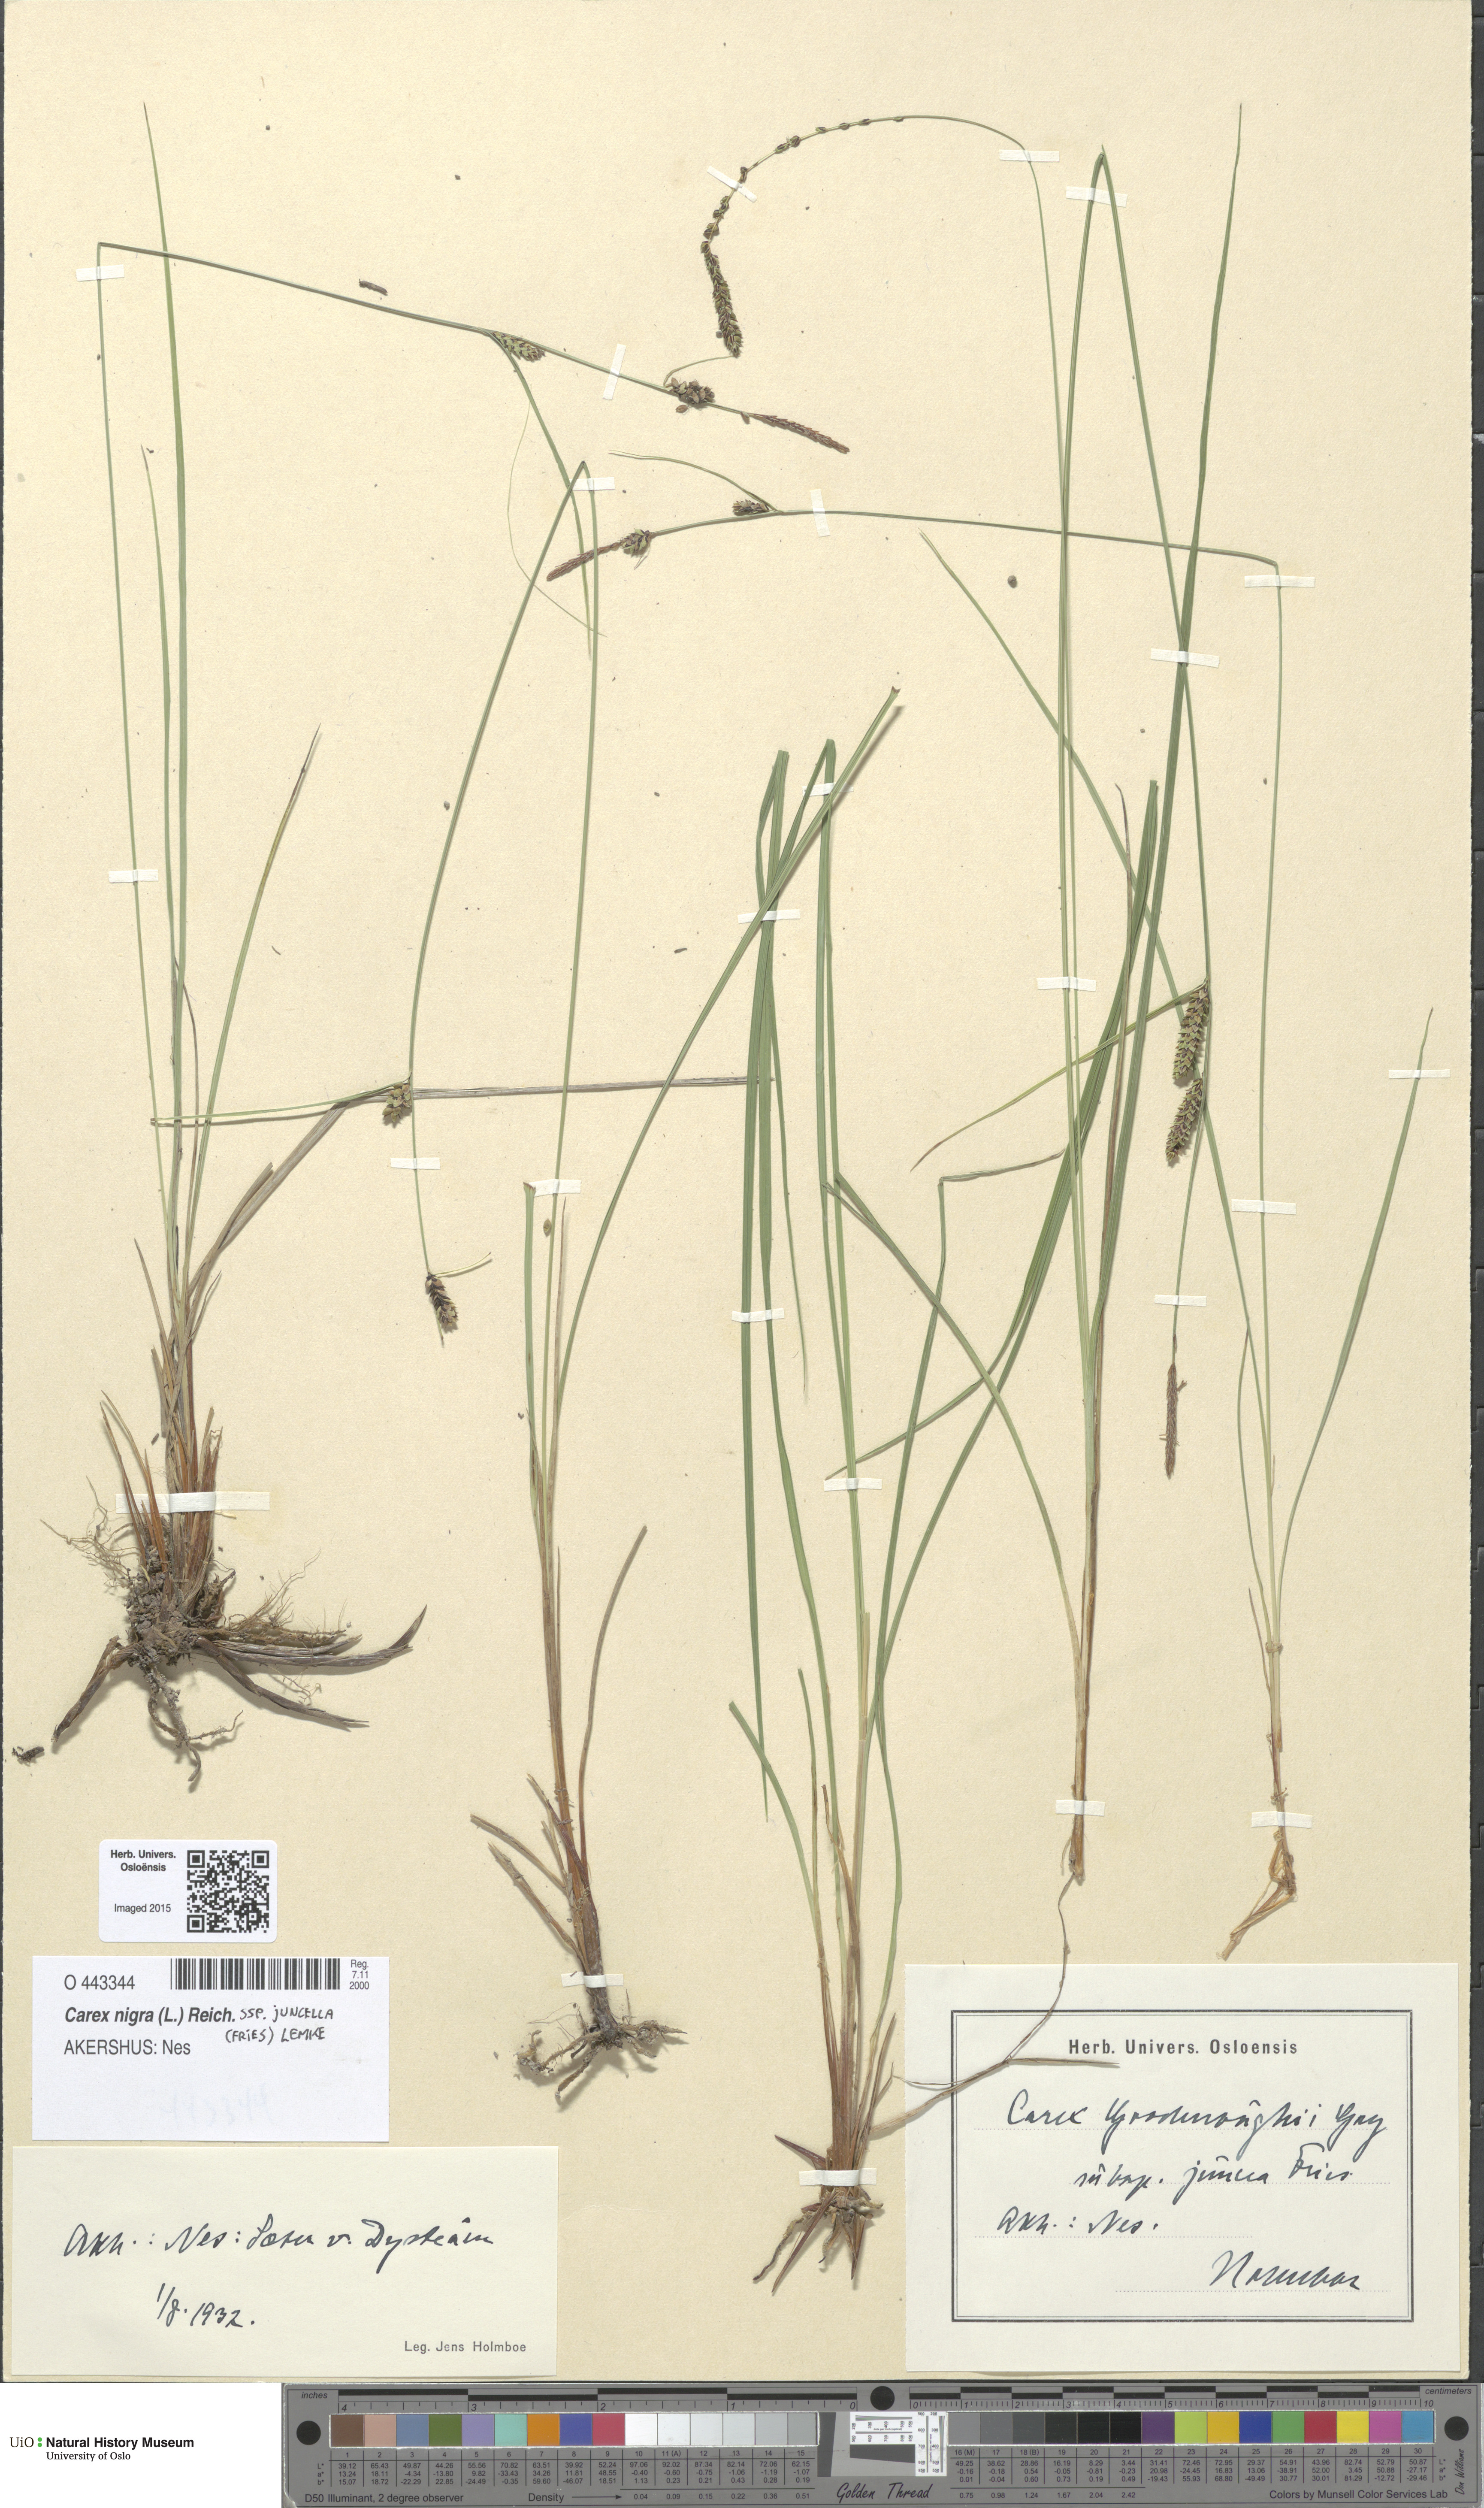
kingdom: Plantae
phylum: Tracheophyta
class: Liliopsida
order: Poales
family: Cyperaceae
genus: Carex
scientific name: Carex nigra
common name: Common sedge
